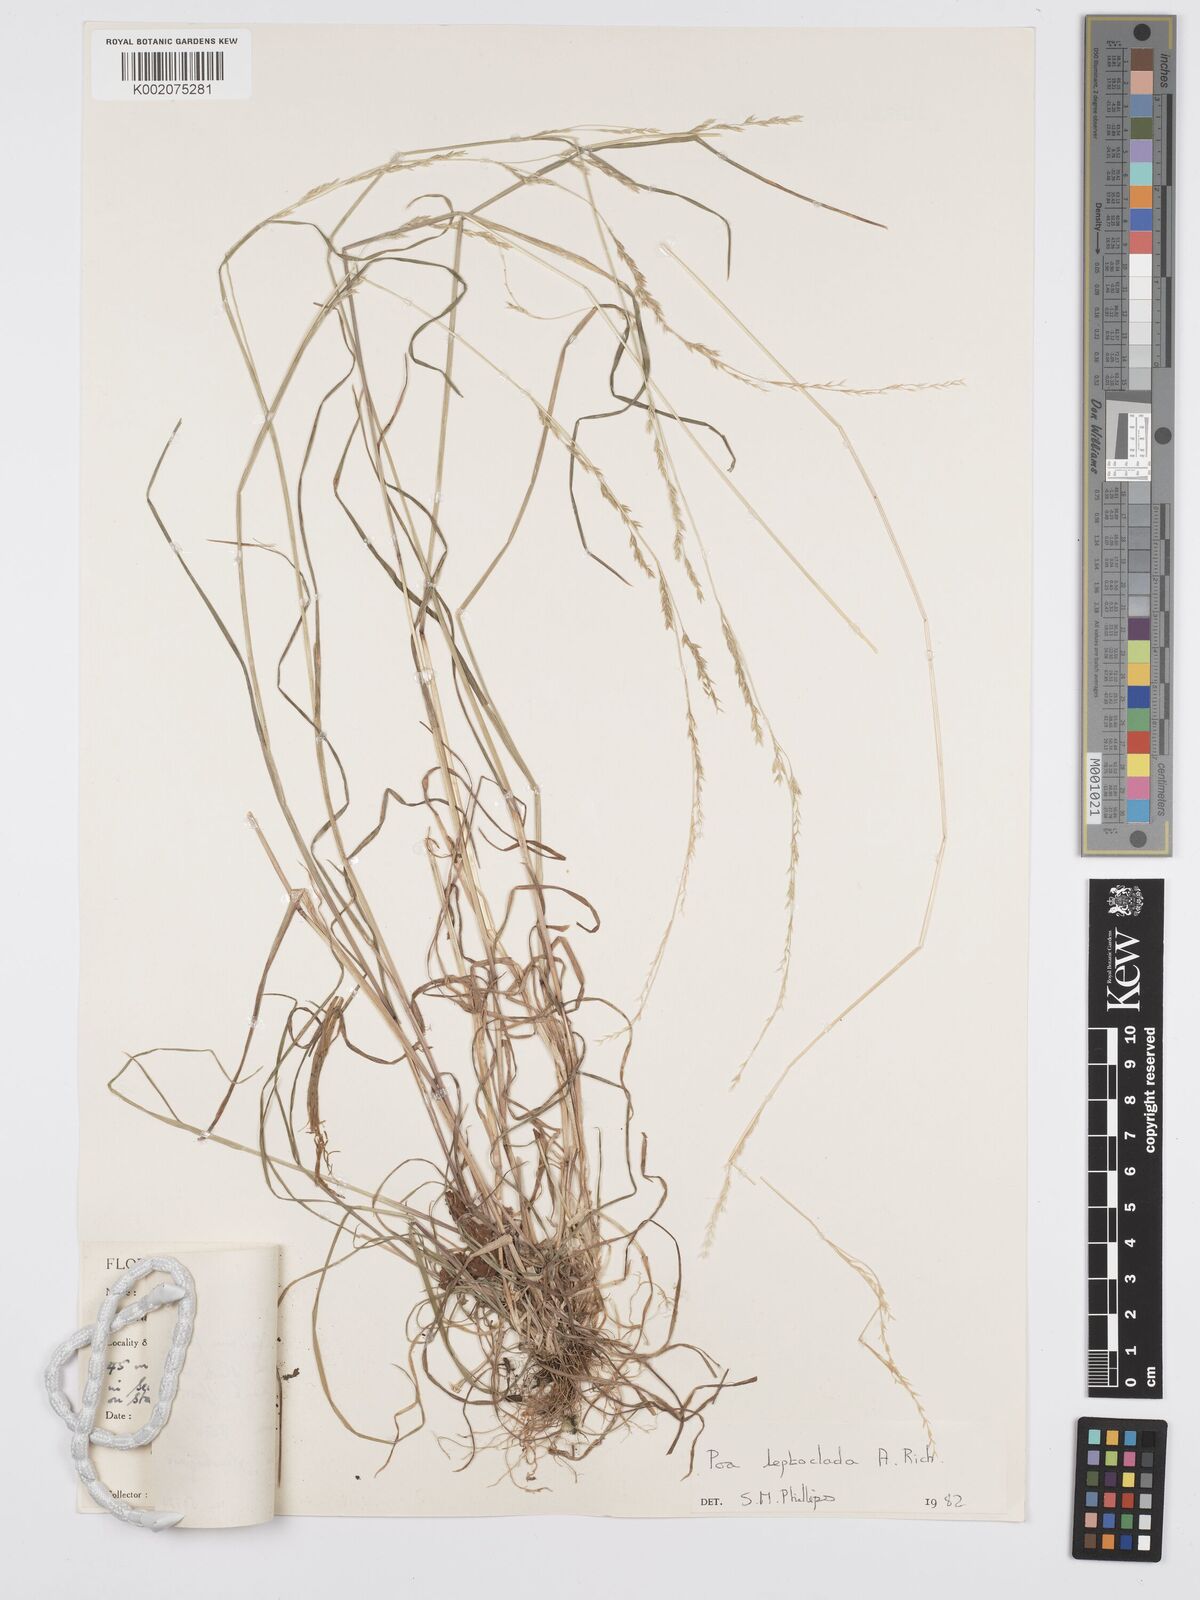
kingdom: Plantae
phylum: Tracheophyta
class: Liliopsida
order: Poales
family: Poaceae
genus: Poa
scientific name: Poa leptoclada
